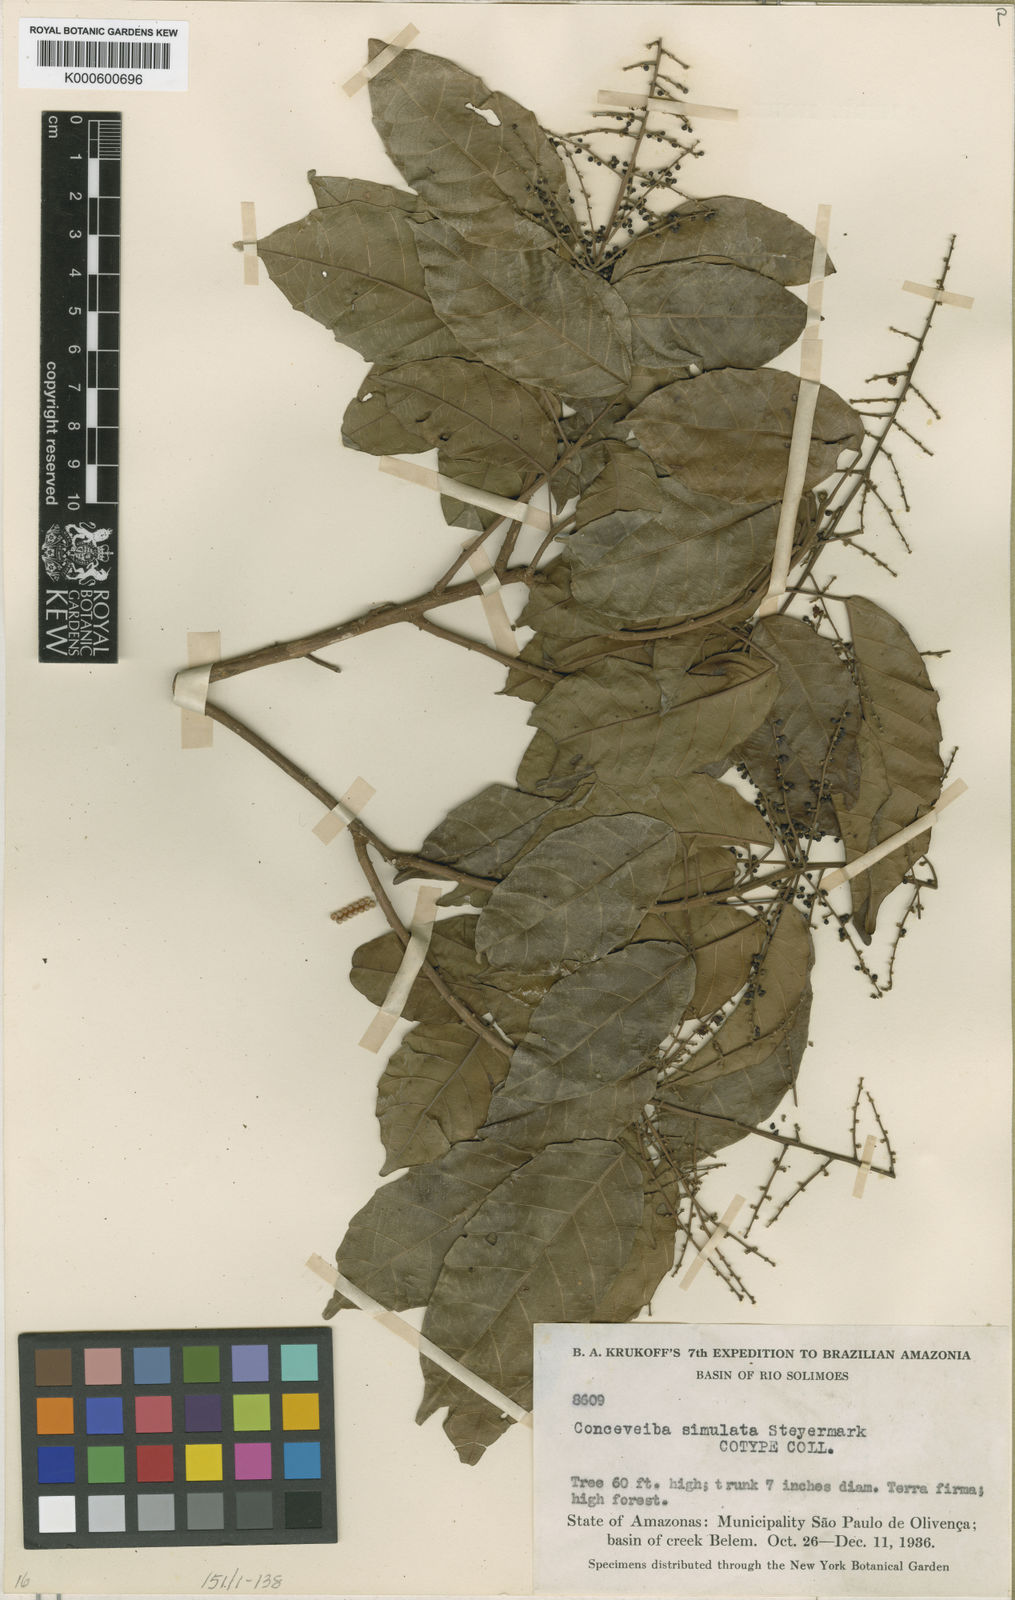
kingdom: Plantae
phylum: Tracheophyta
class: Magnoliopsida
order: Malpighiales
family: Euphorbiaceae
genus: Conceveiba
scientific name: Conceveiba krukoffii
